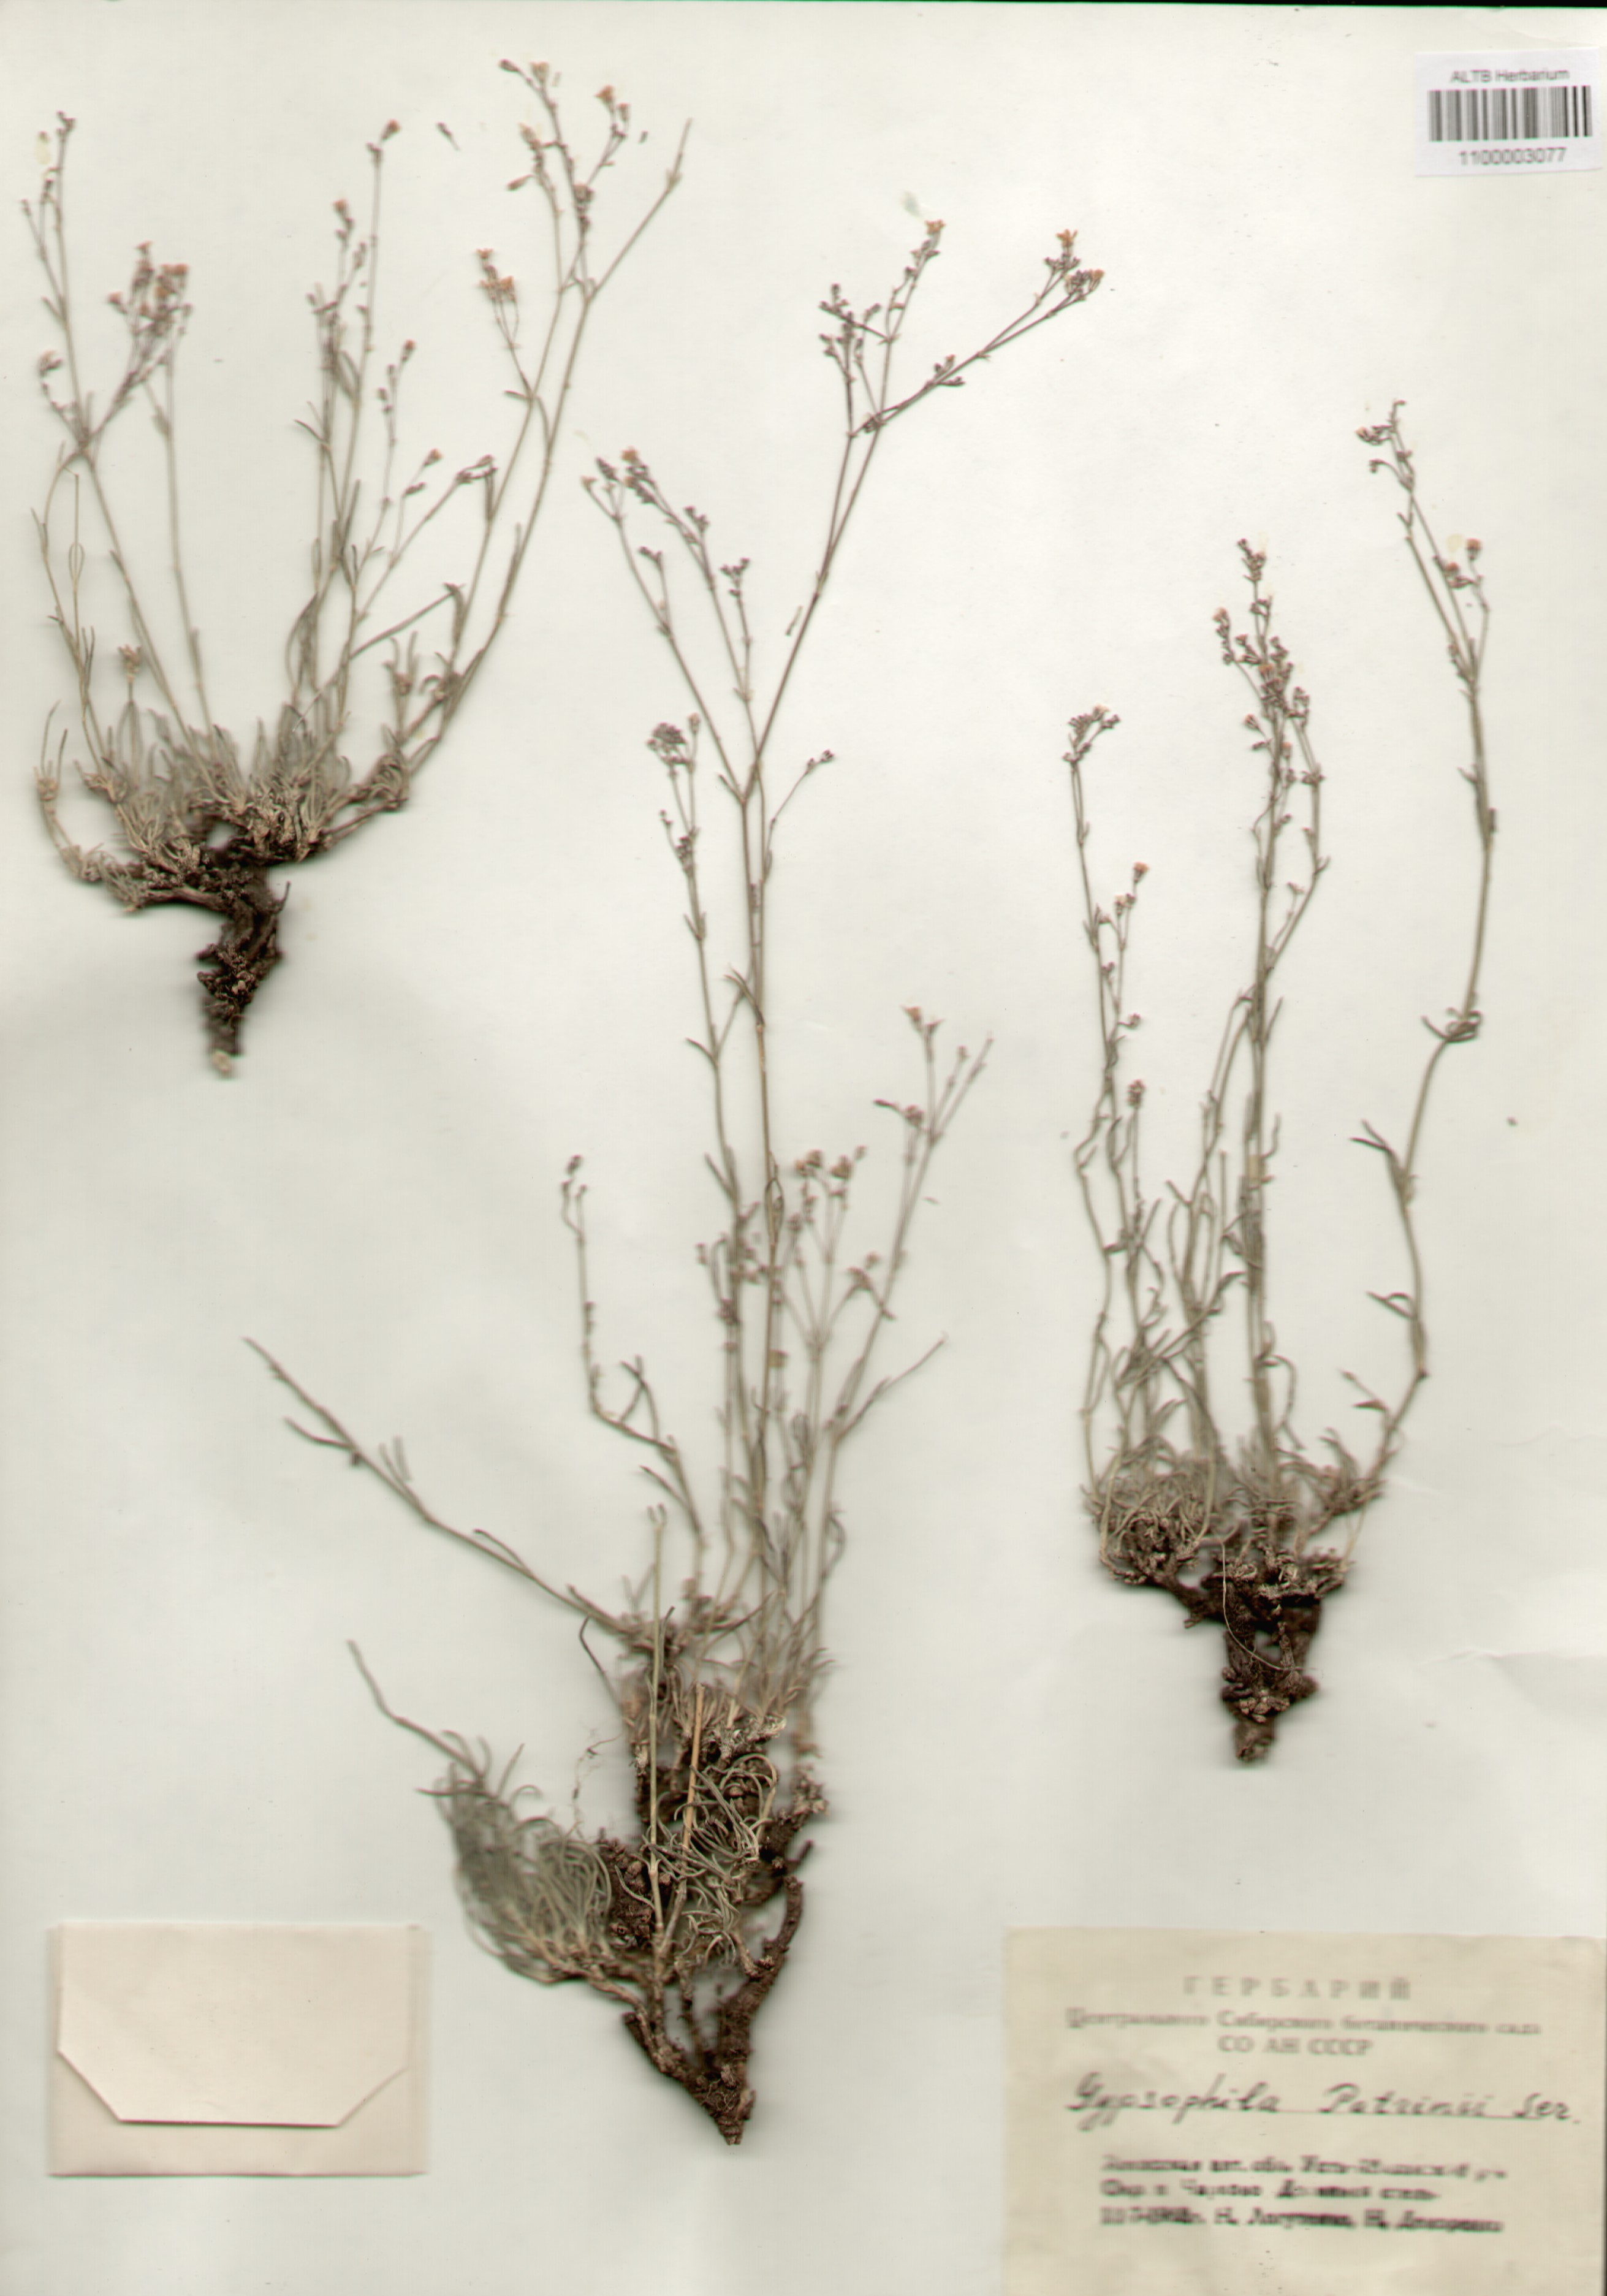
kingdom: Plantae
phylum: Tracheophyta
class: Magnoliopsida
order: Caryophyllales
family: Caryophyllaceae
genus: Gypsophila
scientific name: Gypsophila patrinii
